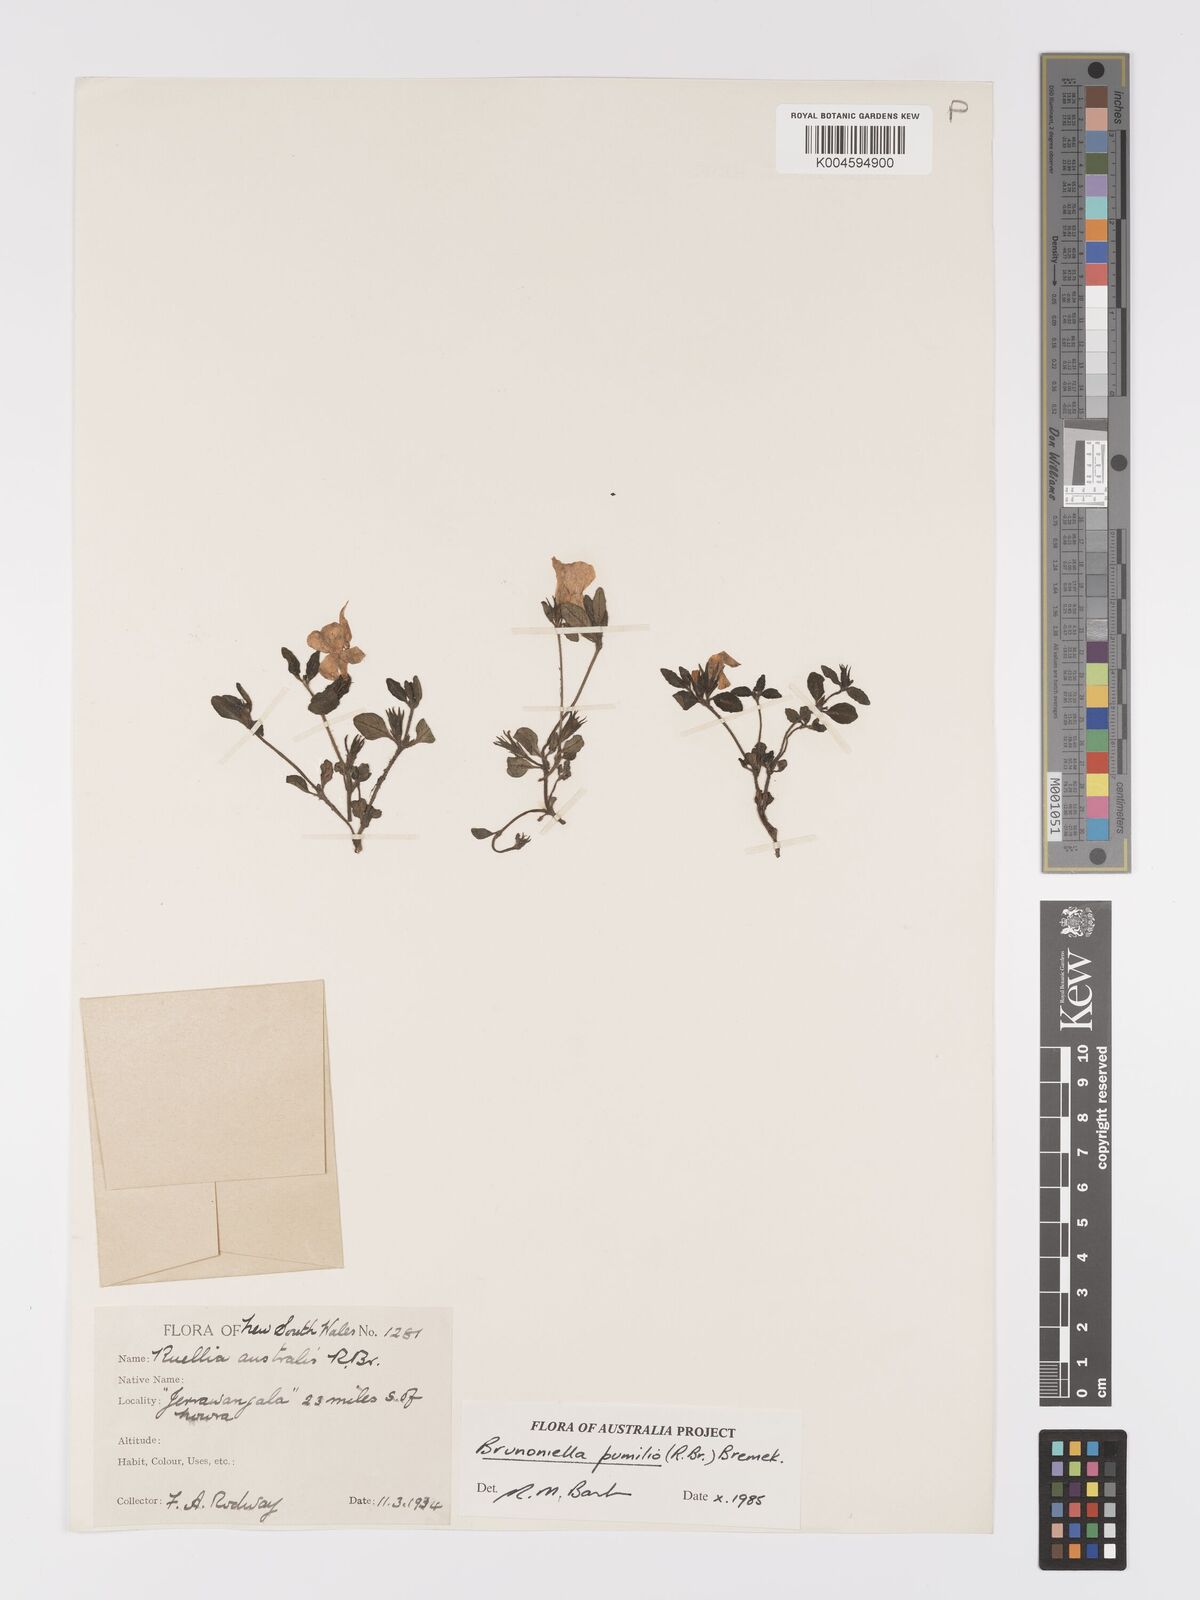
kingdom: Plantae
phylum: Tracheophyta
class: Magnoliopsida
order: Lamiales
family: Acanthaceae
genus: Brunoniella
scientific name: Brunoniella pumilio
